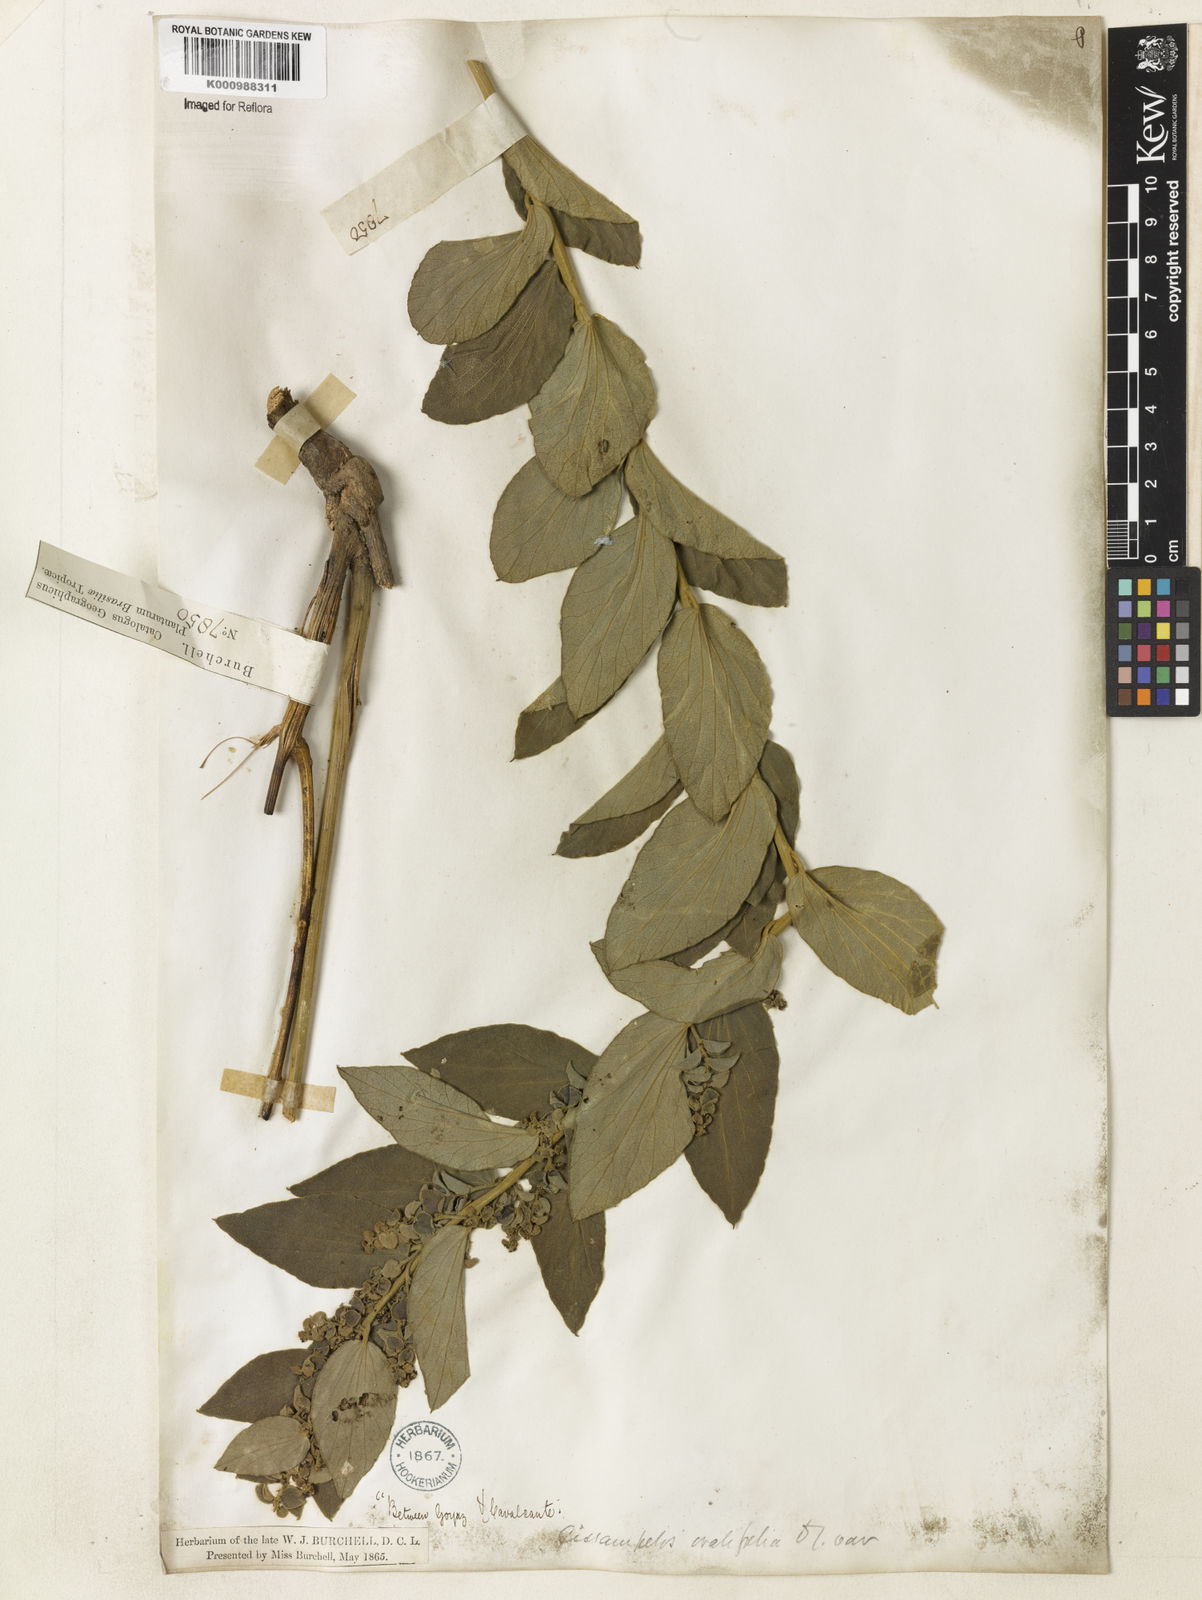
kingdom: Plantae
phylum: Tracheophyta
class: Magnoliopsida
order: Ranunculales
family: Menispermaceae
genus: Cissampelos
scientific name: Cissampelos ovalifolia
